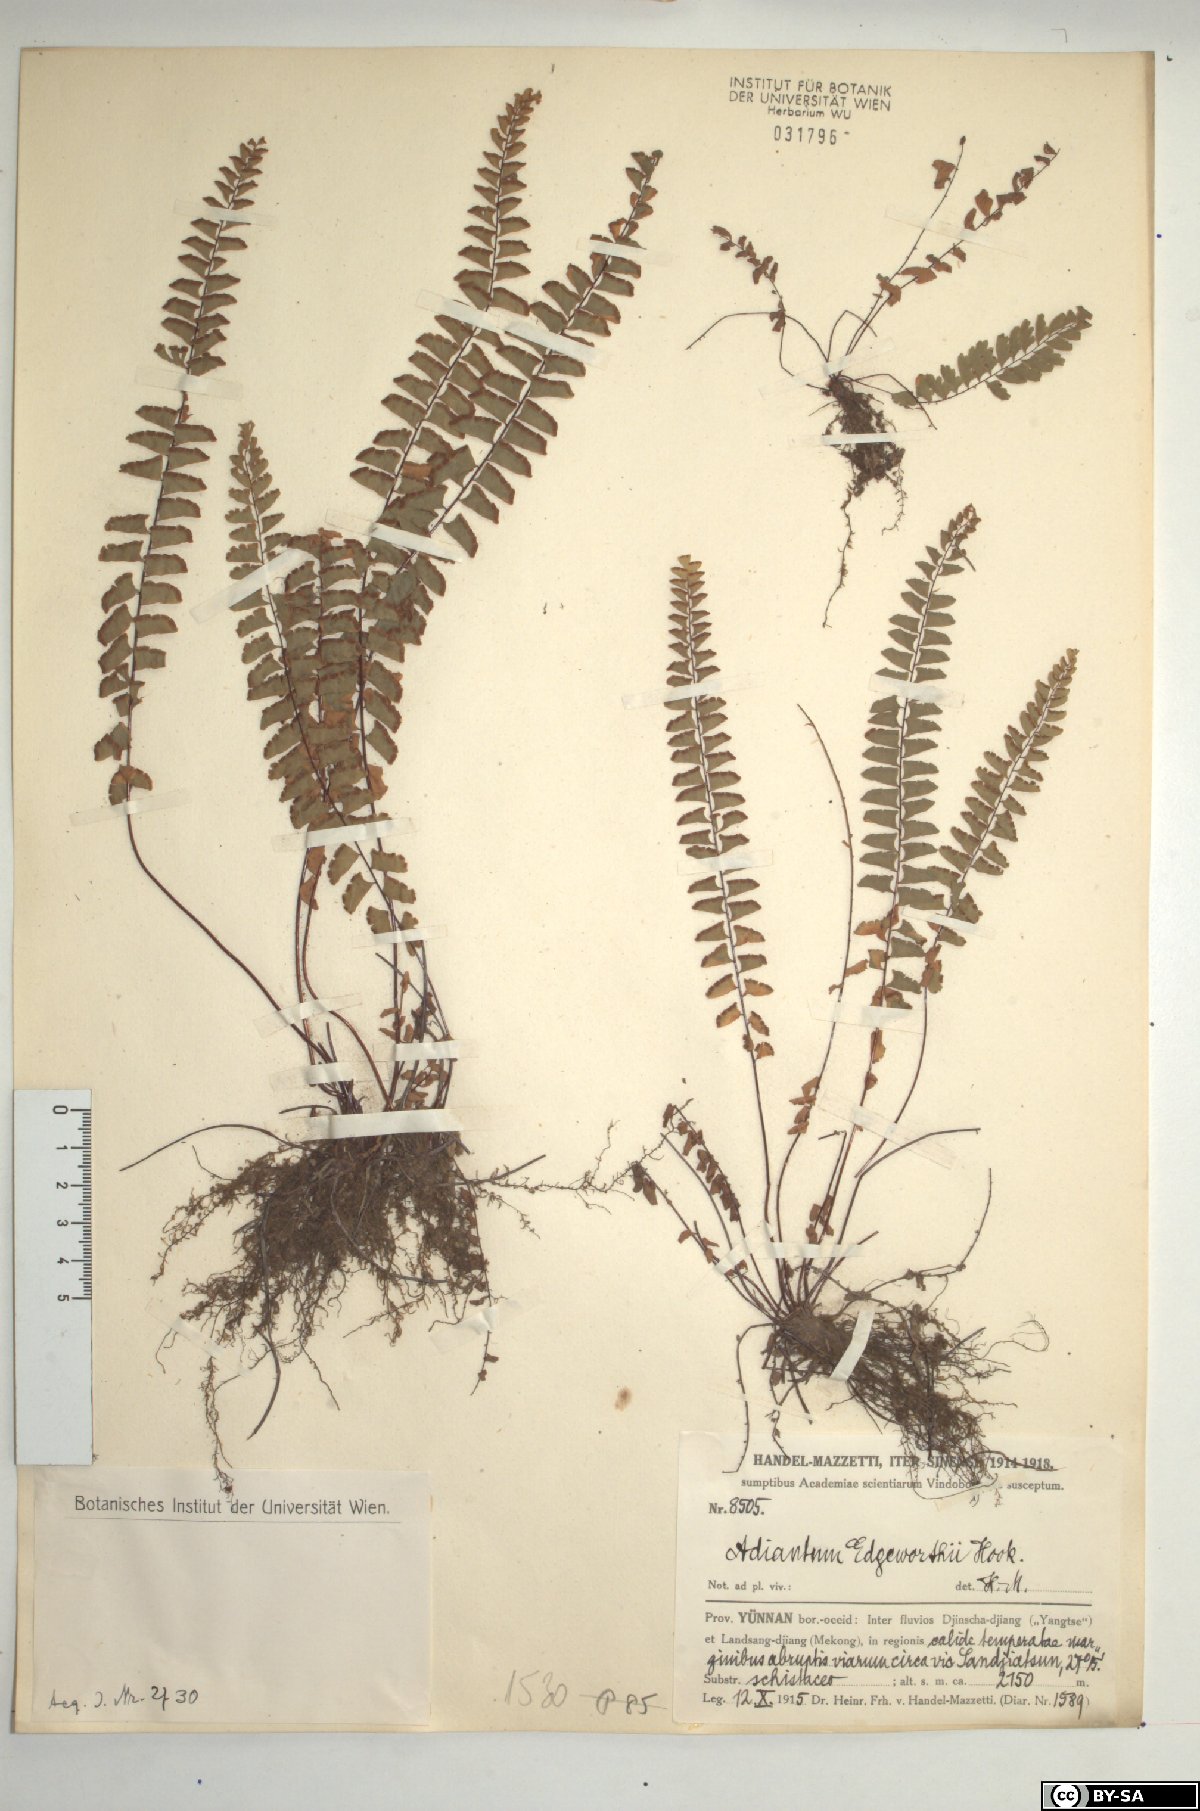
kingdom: Plantae
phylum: Tracheophyta
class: Polypodiopsida
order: Polypodiales
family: Pteridaceae
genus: Adiantum
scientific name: Adiantum edgeworthii
